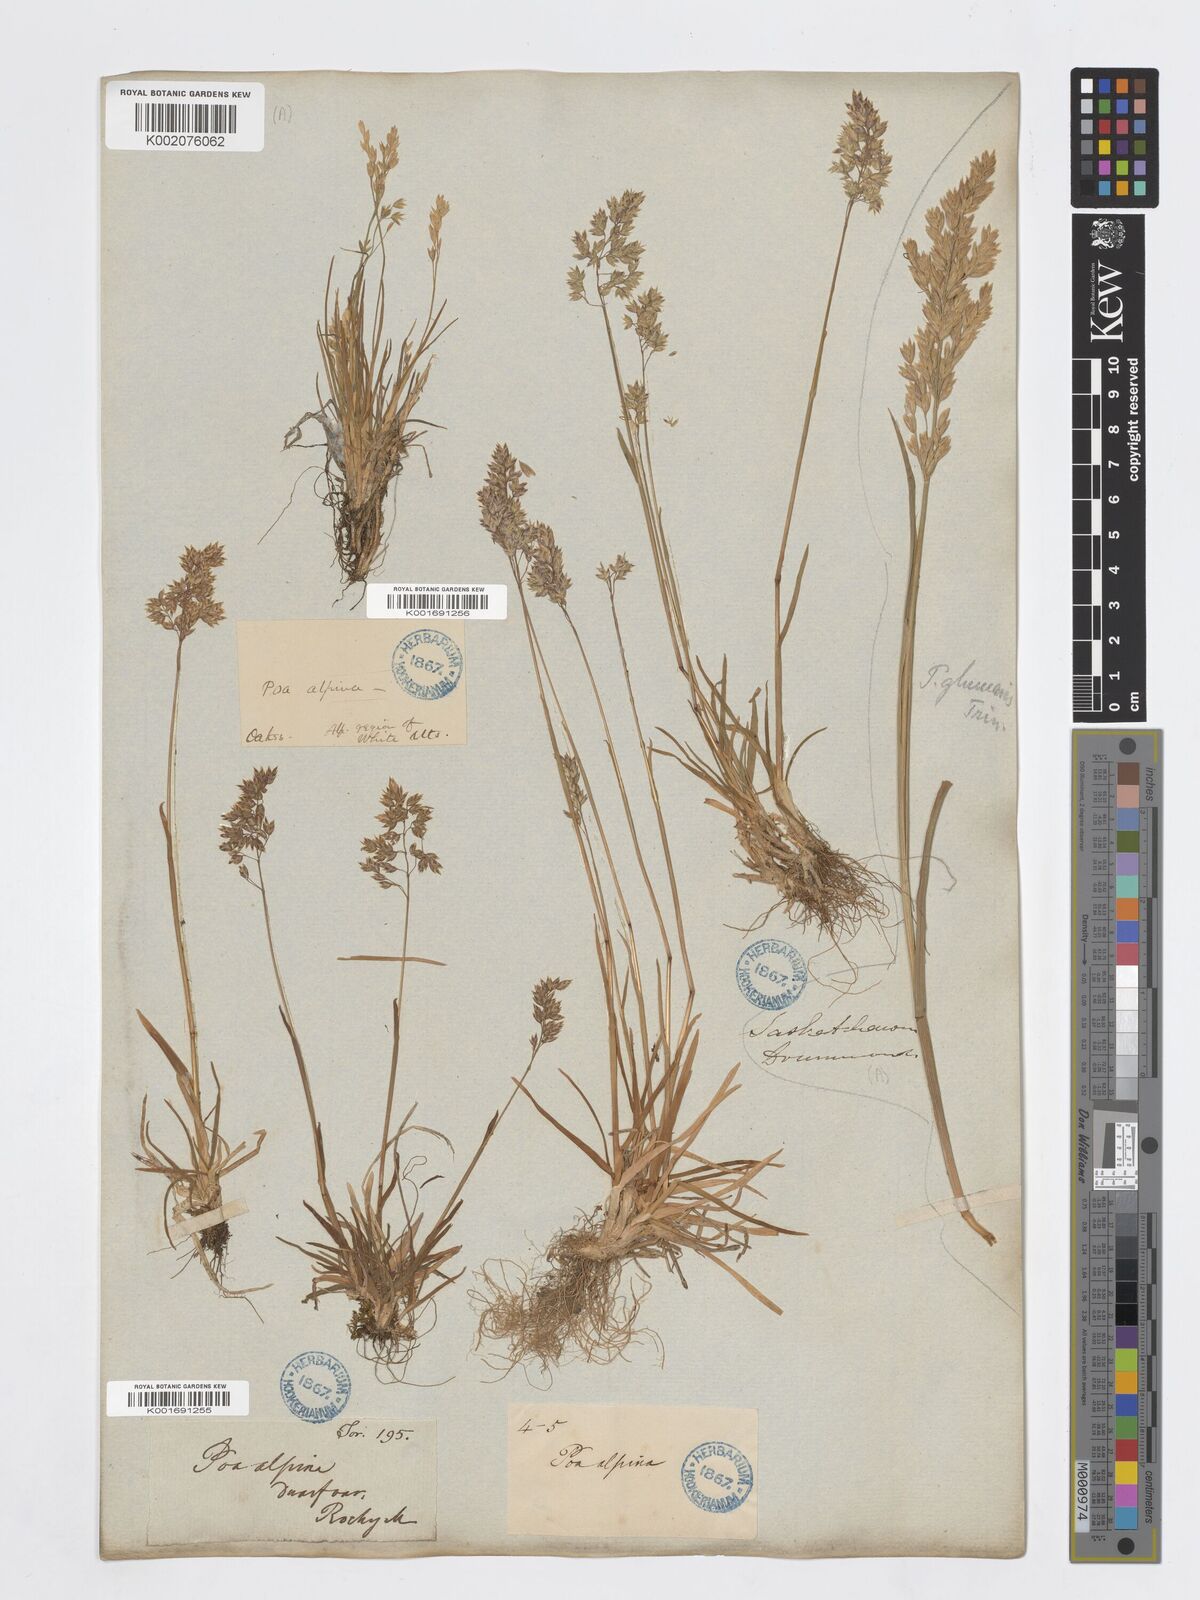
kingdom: Plantae
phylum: Tracheophyta
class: Liliopsida
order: Poales
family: Poaceae
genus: Arctopoa
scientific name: Arctopoa eminens
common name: Eminent bluegrass
